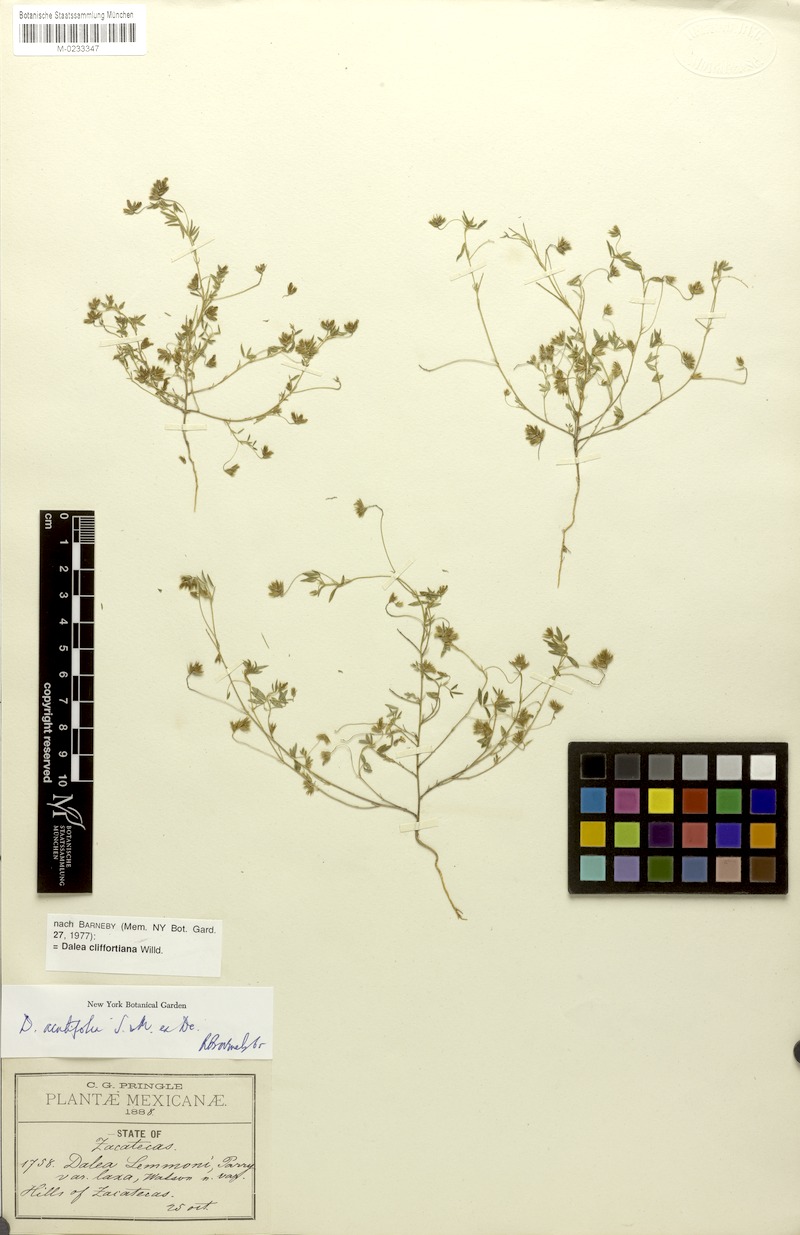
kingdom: Plantae
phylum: Tracheophyta
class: Magnoliopsida
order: Fabales
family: Fabaceae
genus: Dalea
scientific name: Dalea cliffortiana
